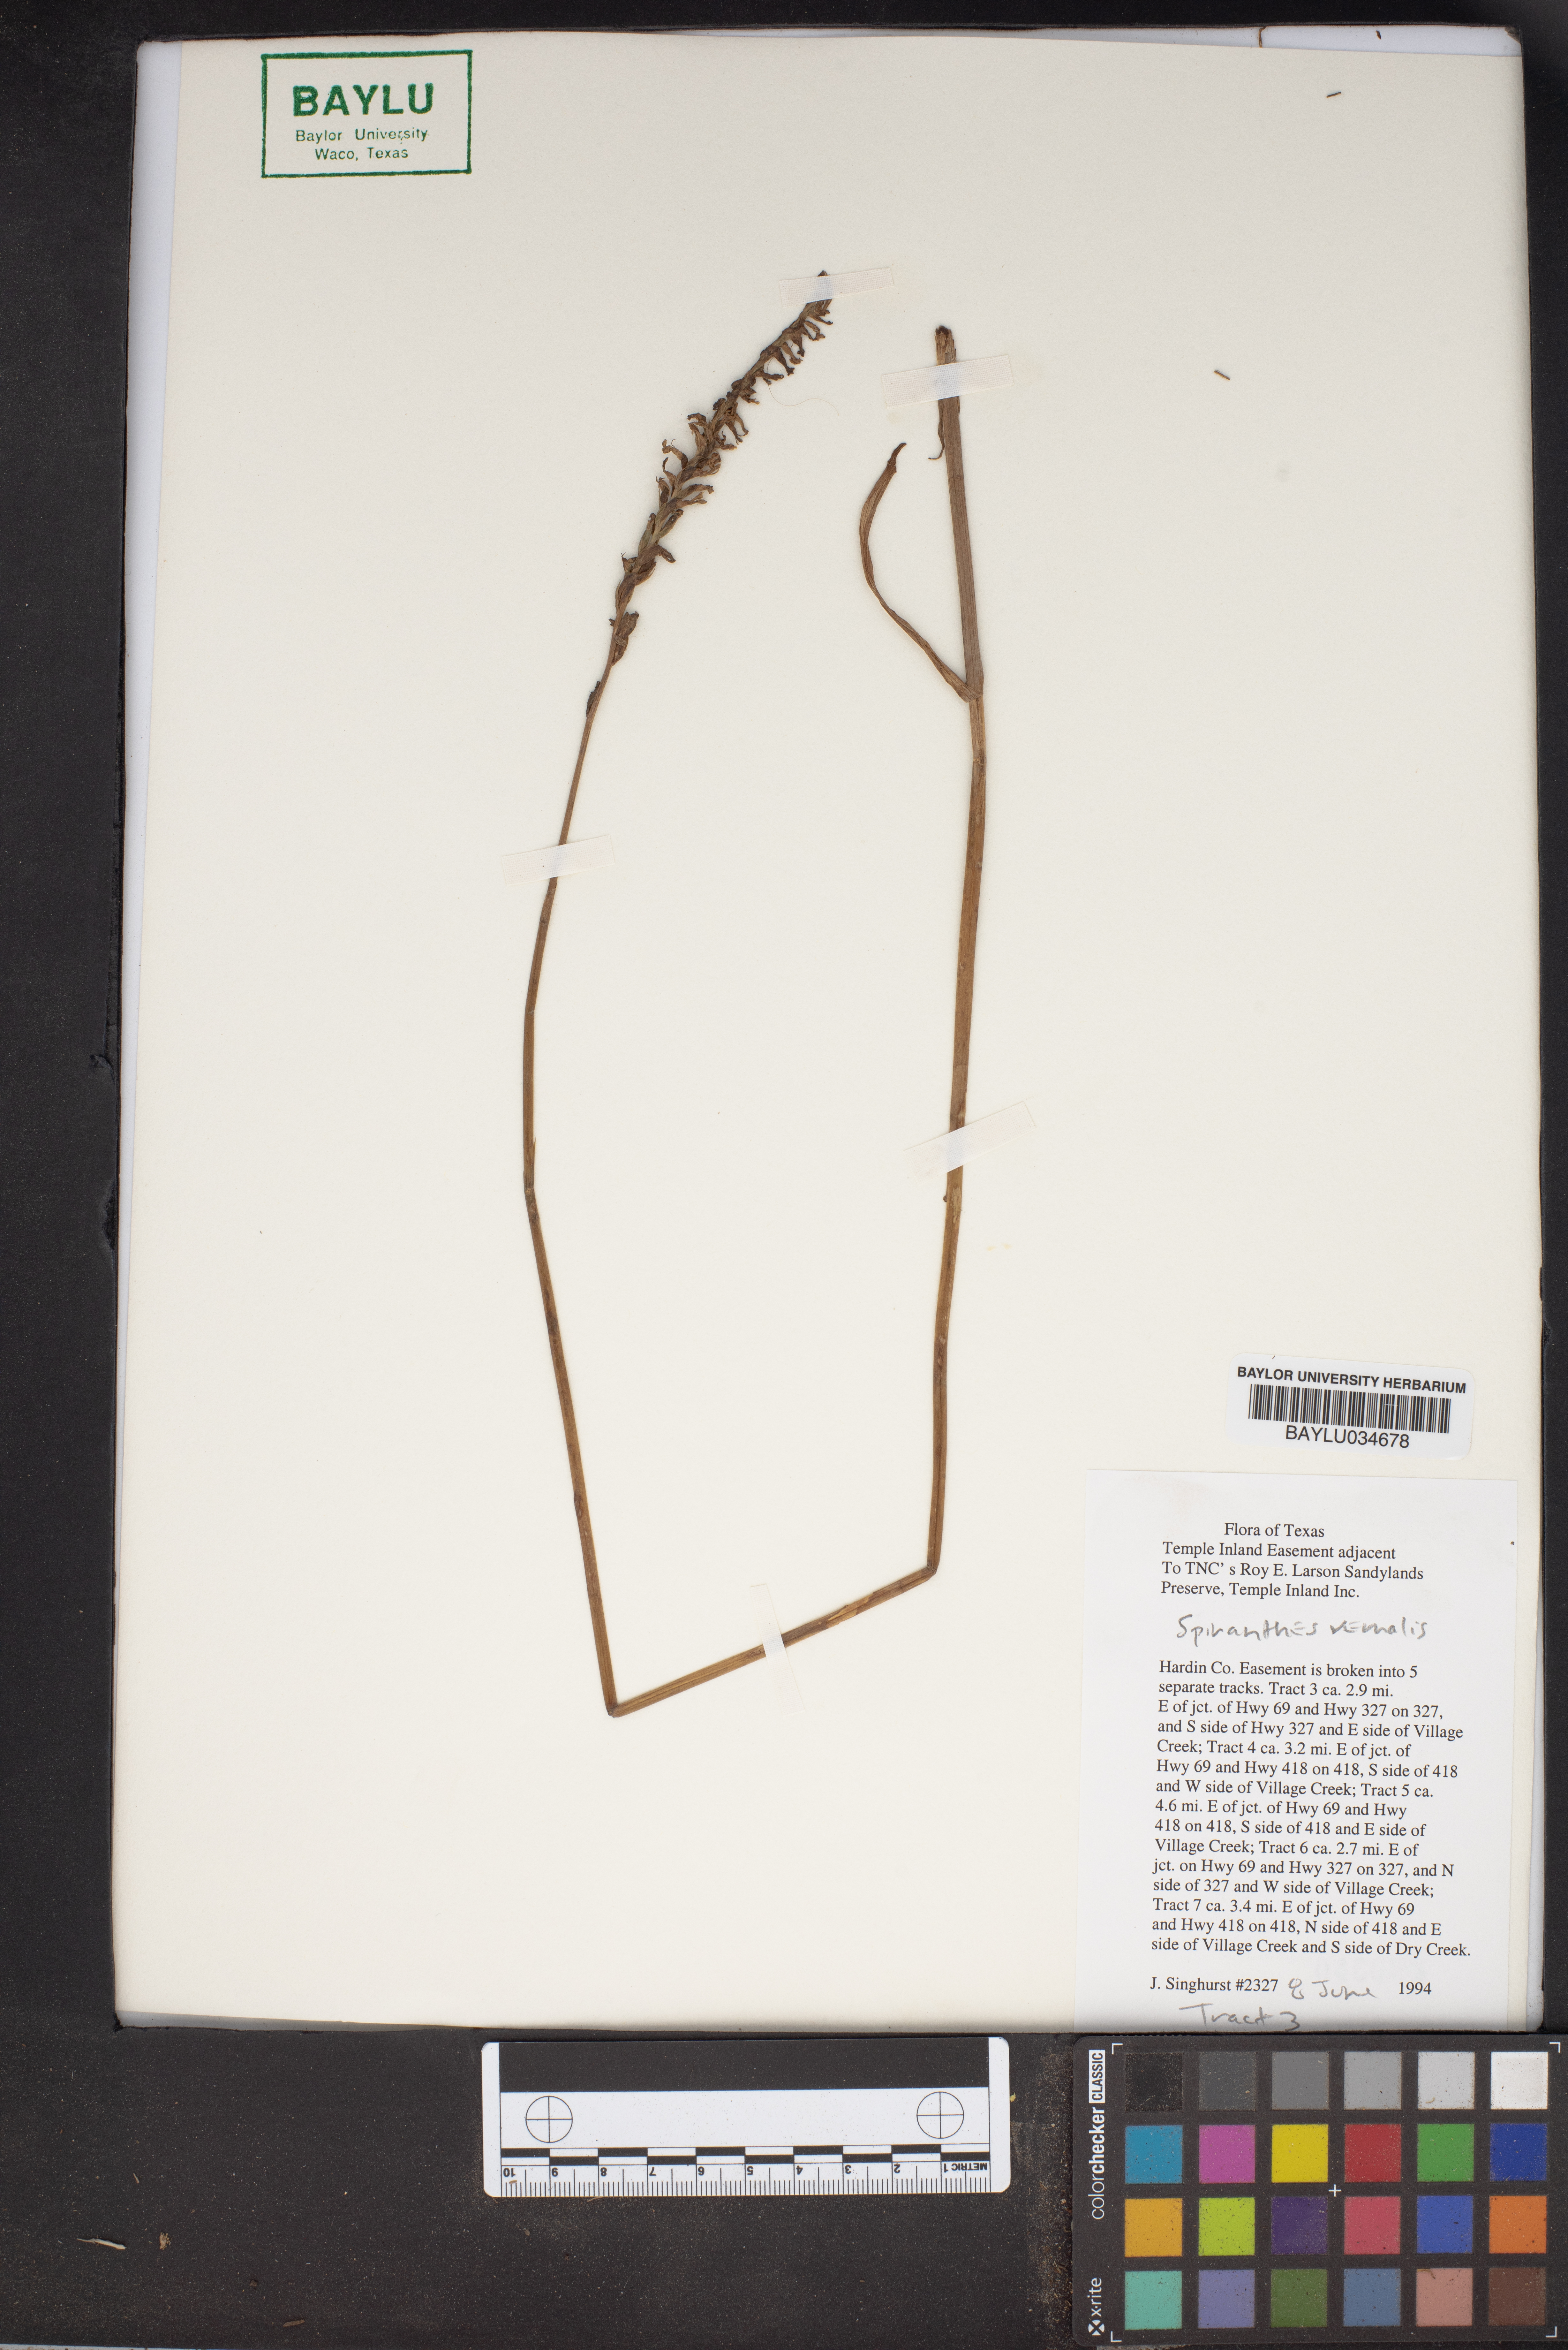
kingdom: Plantae
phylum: Tracheophyta
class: Liliopsida
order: Asparagales
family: Orchidaceae
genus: Funkiella
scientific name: Funkiella hyemalis
